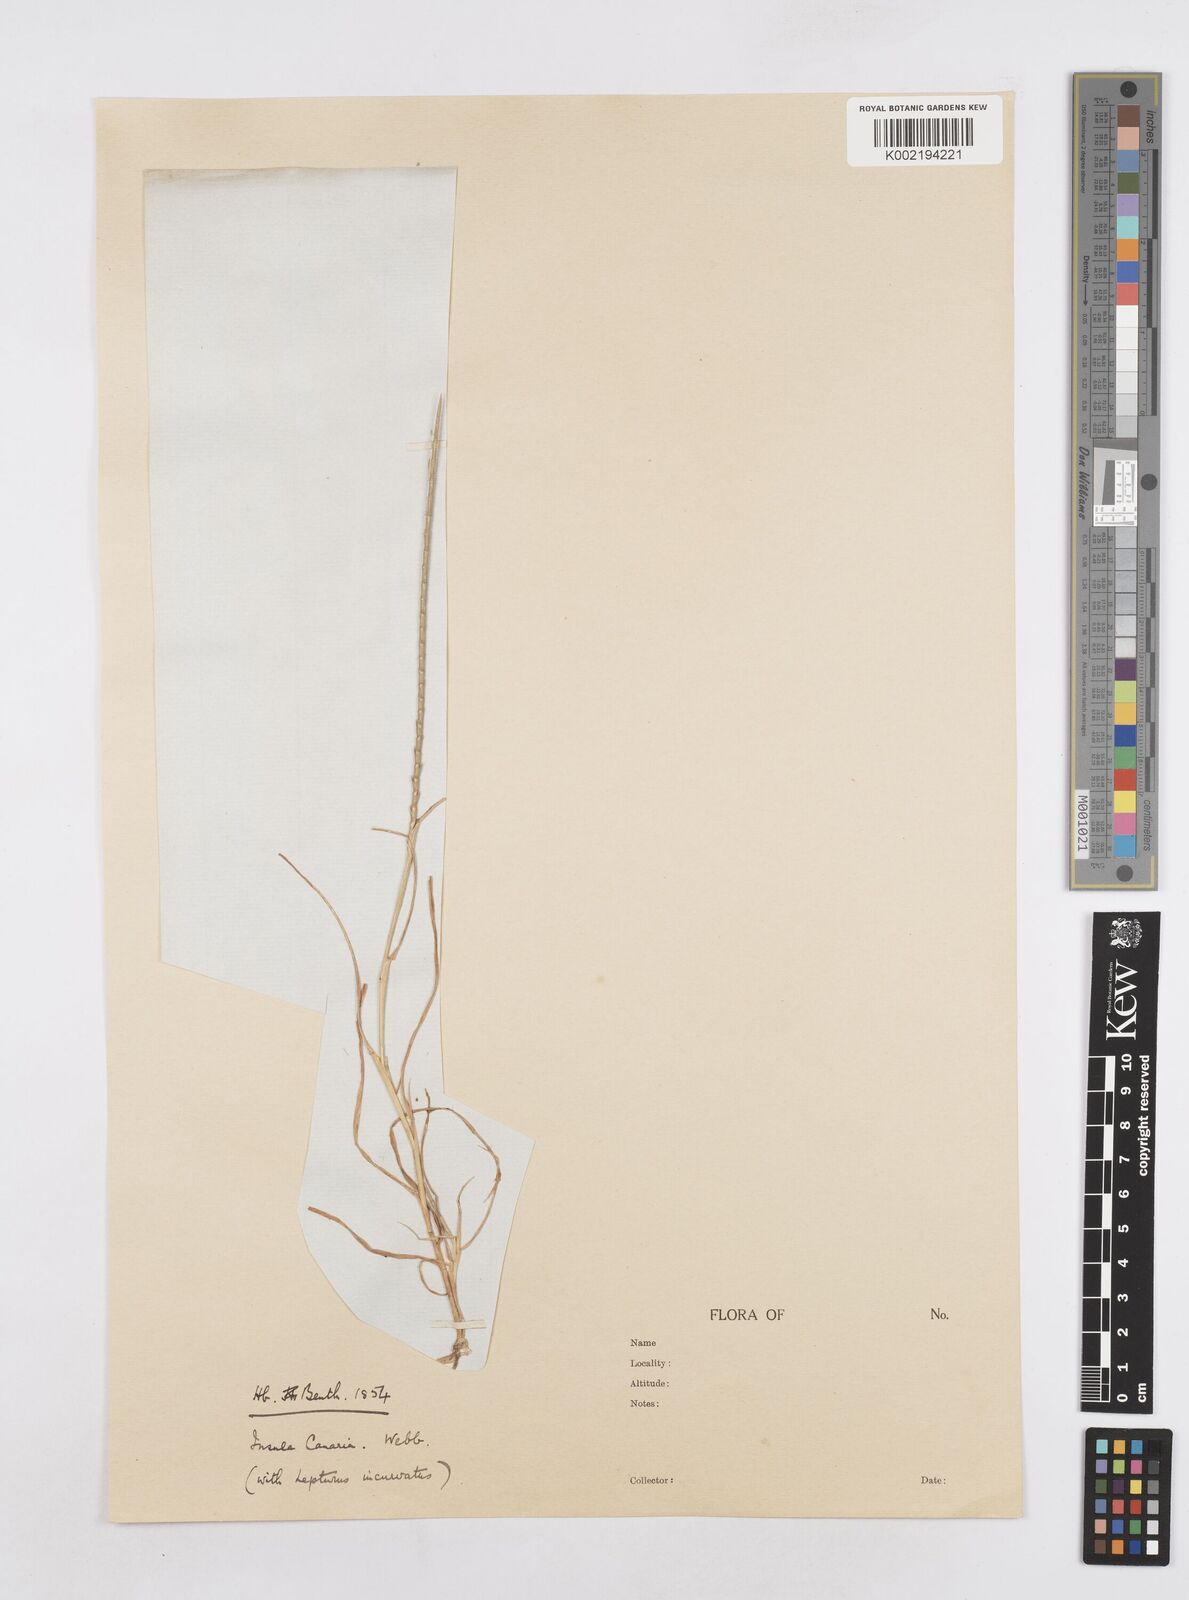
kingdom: Plantae
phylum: Tracheophyta
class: Liliopsida
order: Poales
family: Poaceae
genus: Parapholis
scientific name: Parapholis cylindrica
